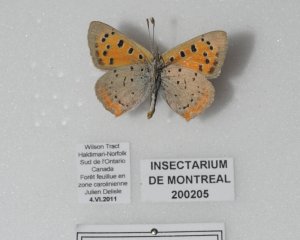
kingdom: Animalia
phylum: Arthropoda
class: Insecta
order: Lepidoptera
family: Lycaenidae
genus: Lycaena
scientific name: Lycaena phlaeas
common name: American Copper
